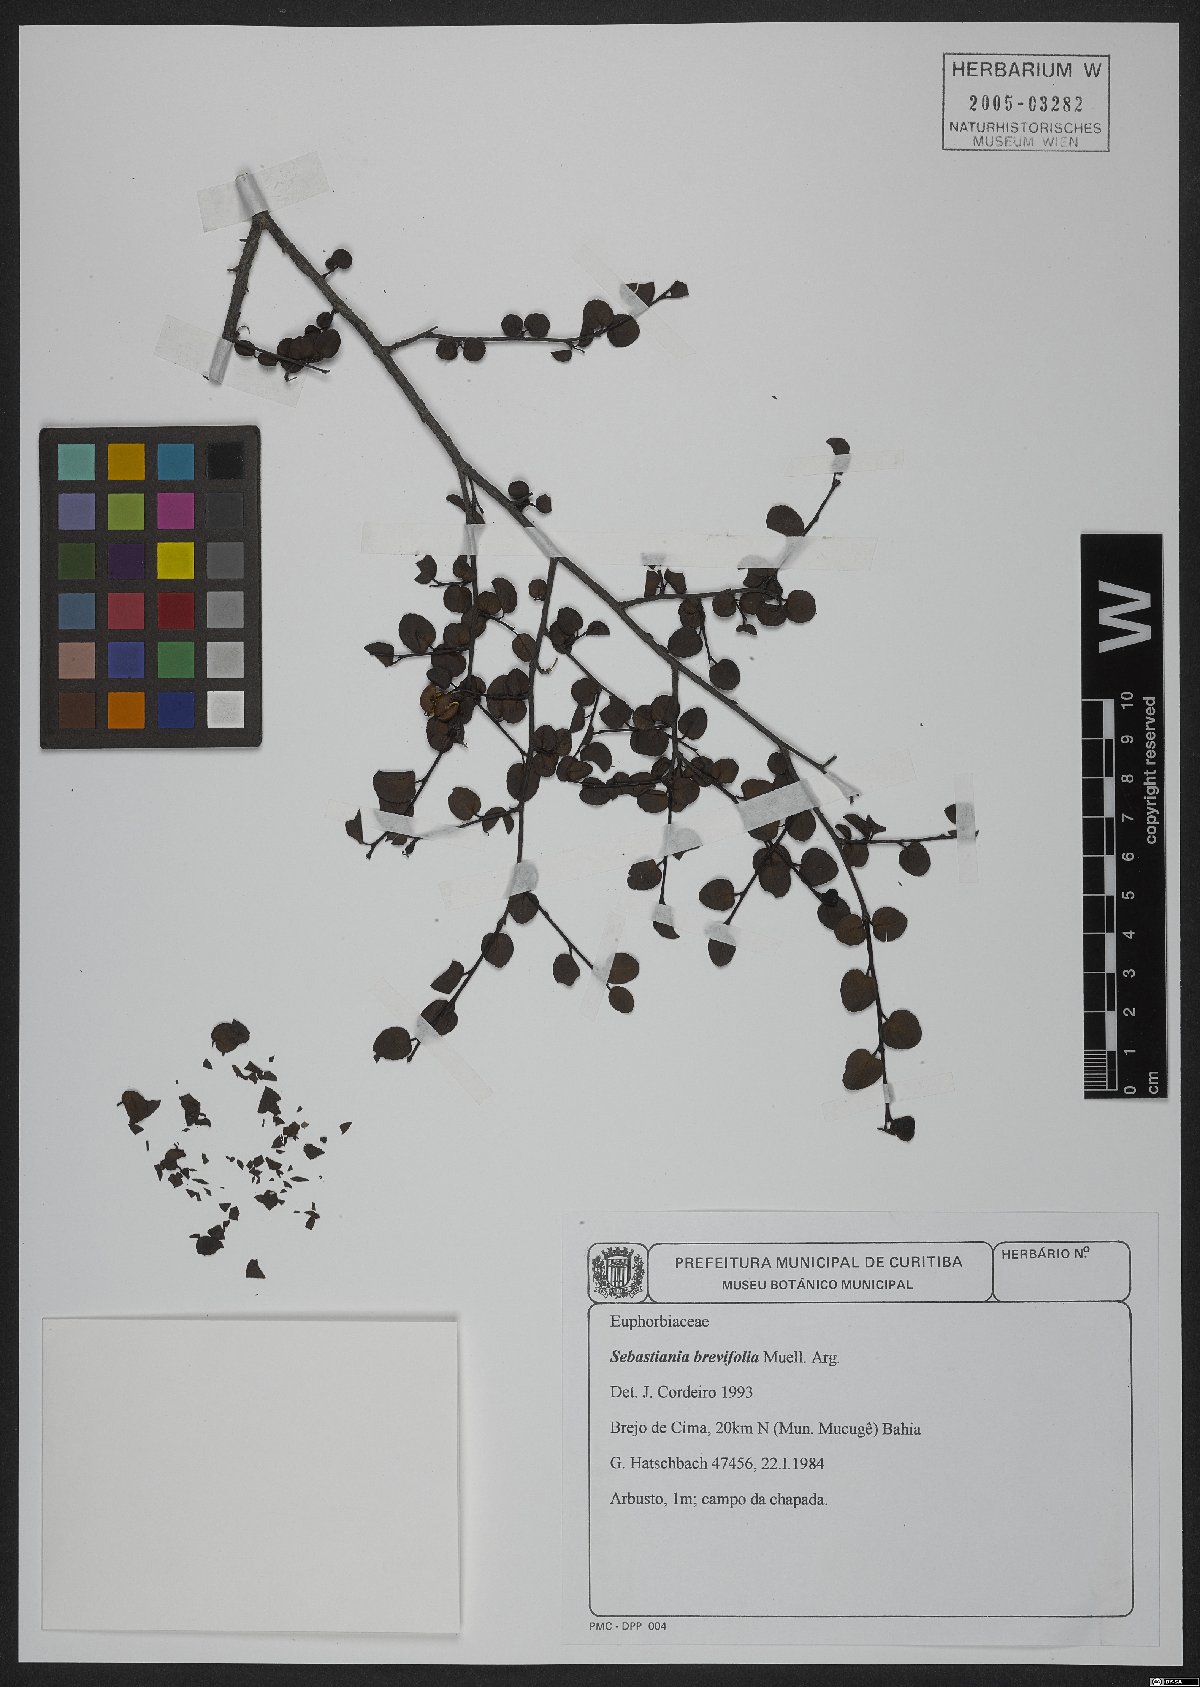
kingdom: Plantae
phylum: Tracheophyta
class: Magnoliopsida
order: Malpighiales
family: Euphorbiaceae
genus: Sebastiania
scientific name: Sebastiania brevifolia
